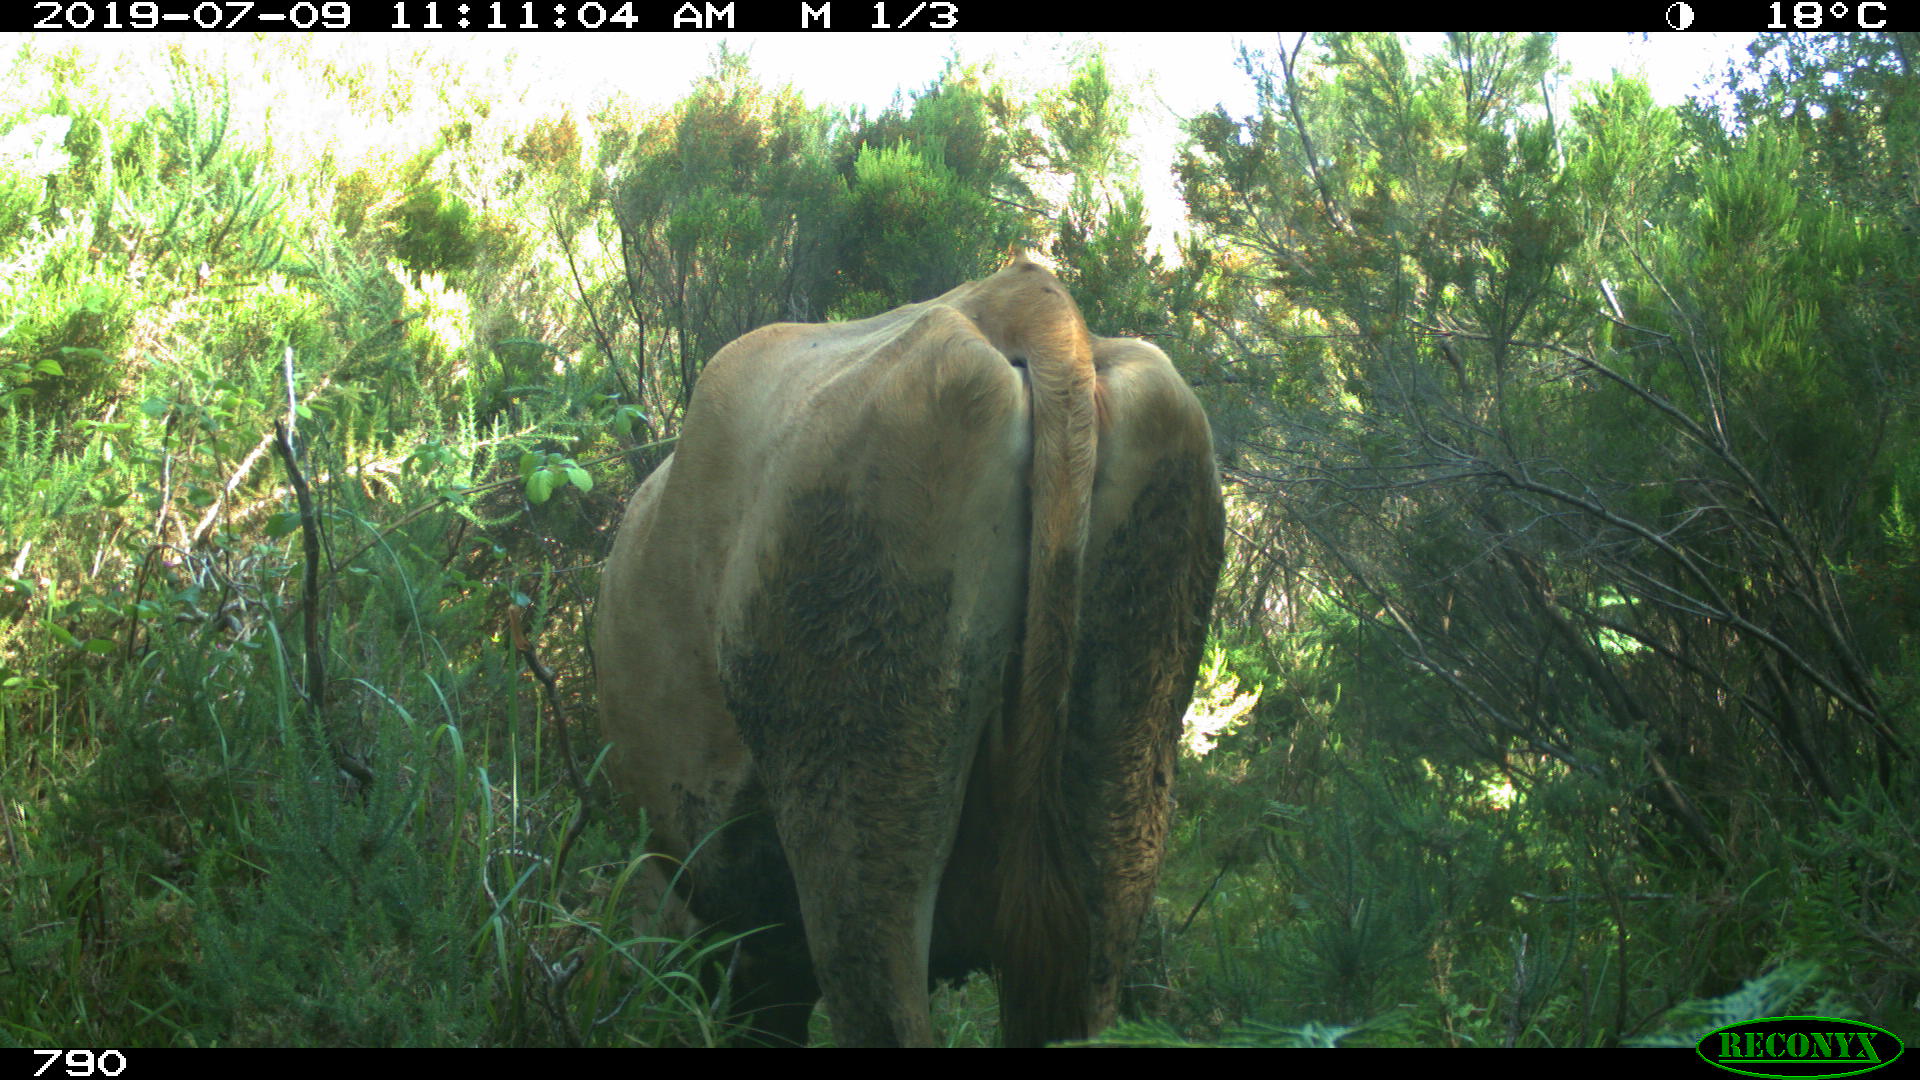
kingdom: Animalia
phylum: Chordata
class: Mammalia
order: Artiodactyla
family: Bovidae
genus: Bos
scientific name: Bos taurus
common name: Domesticated cattle
